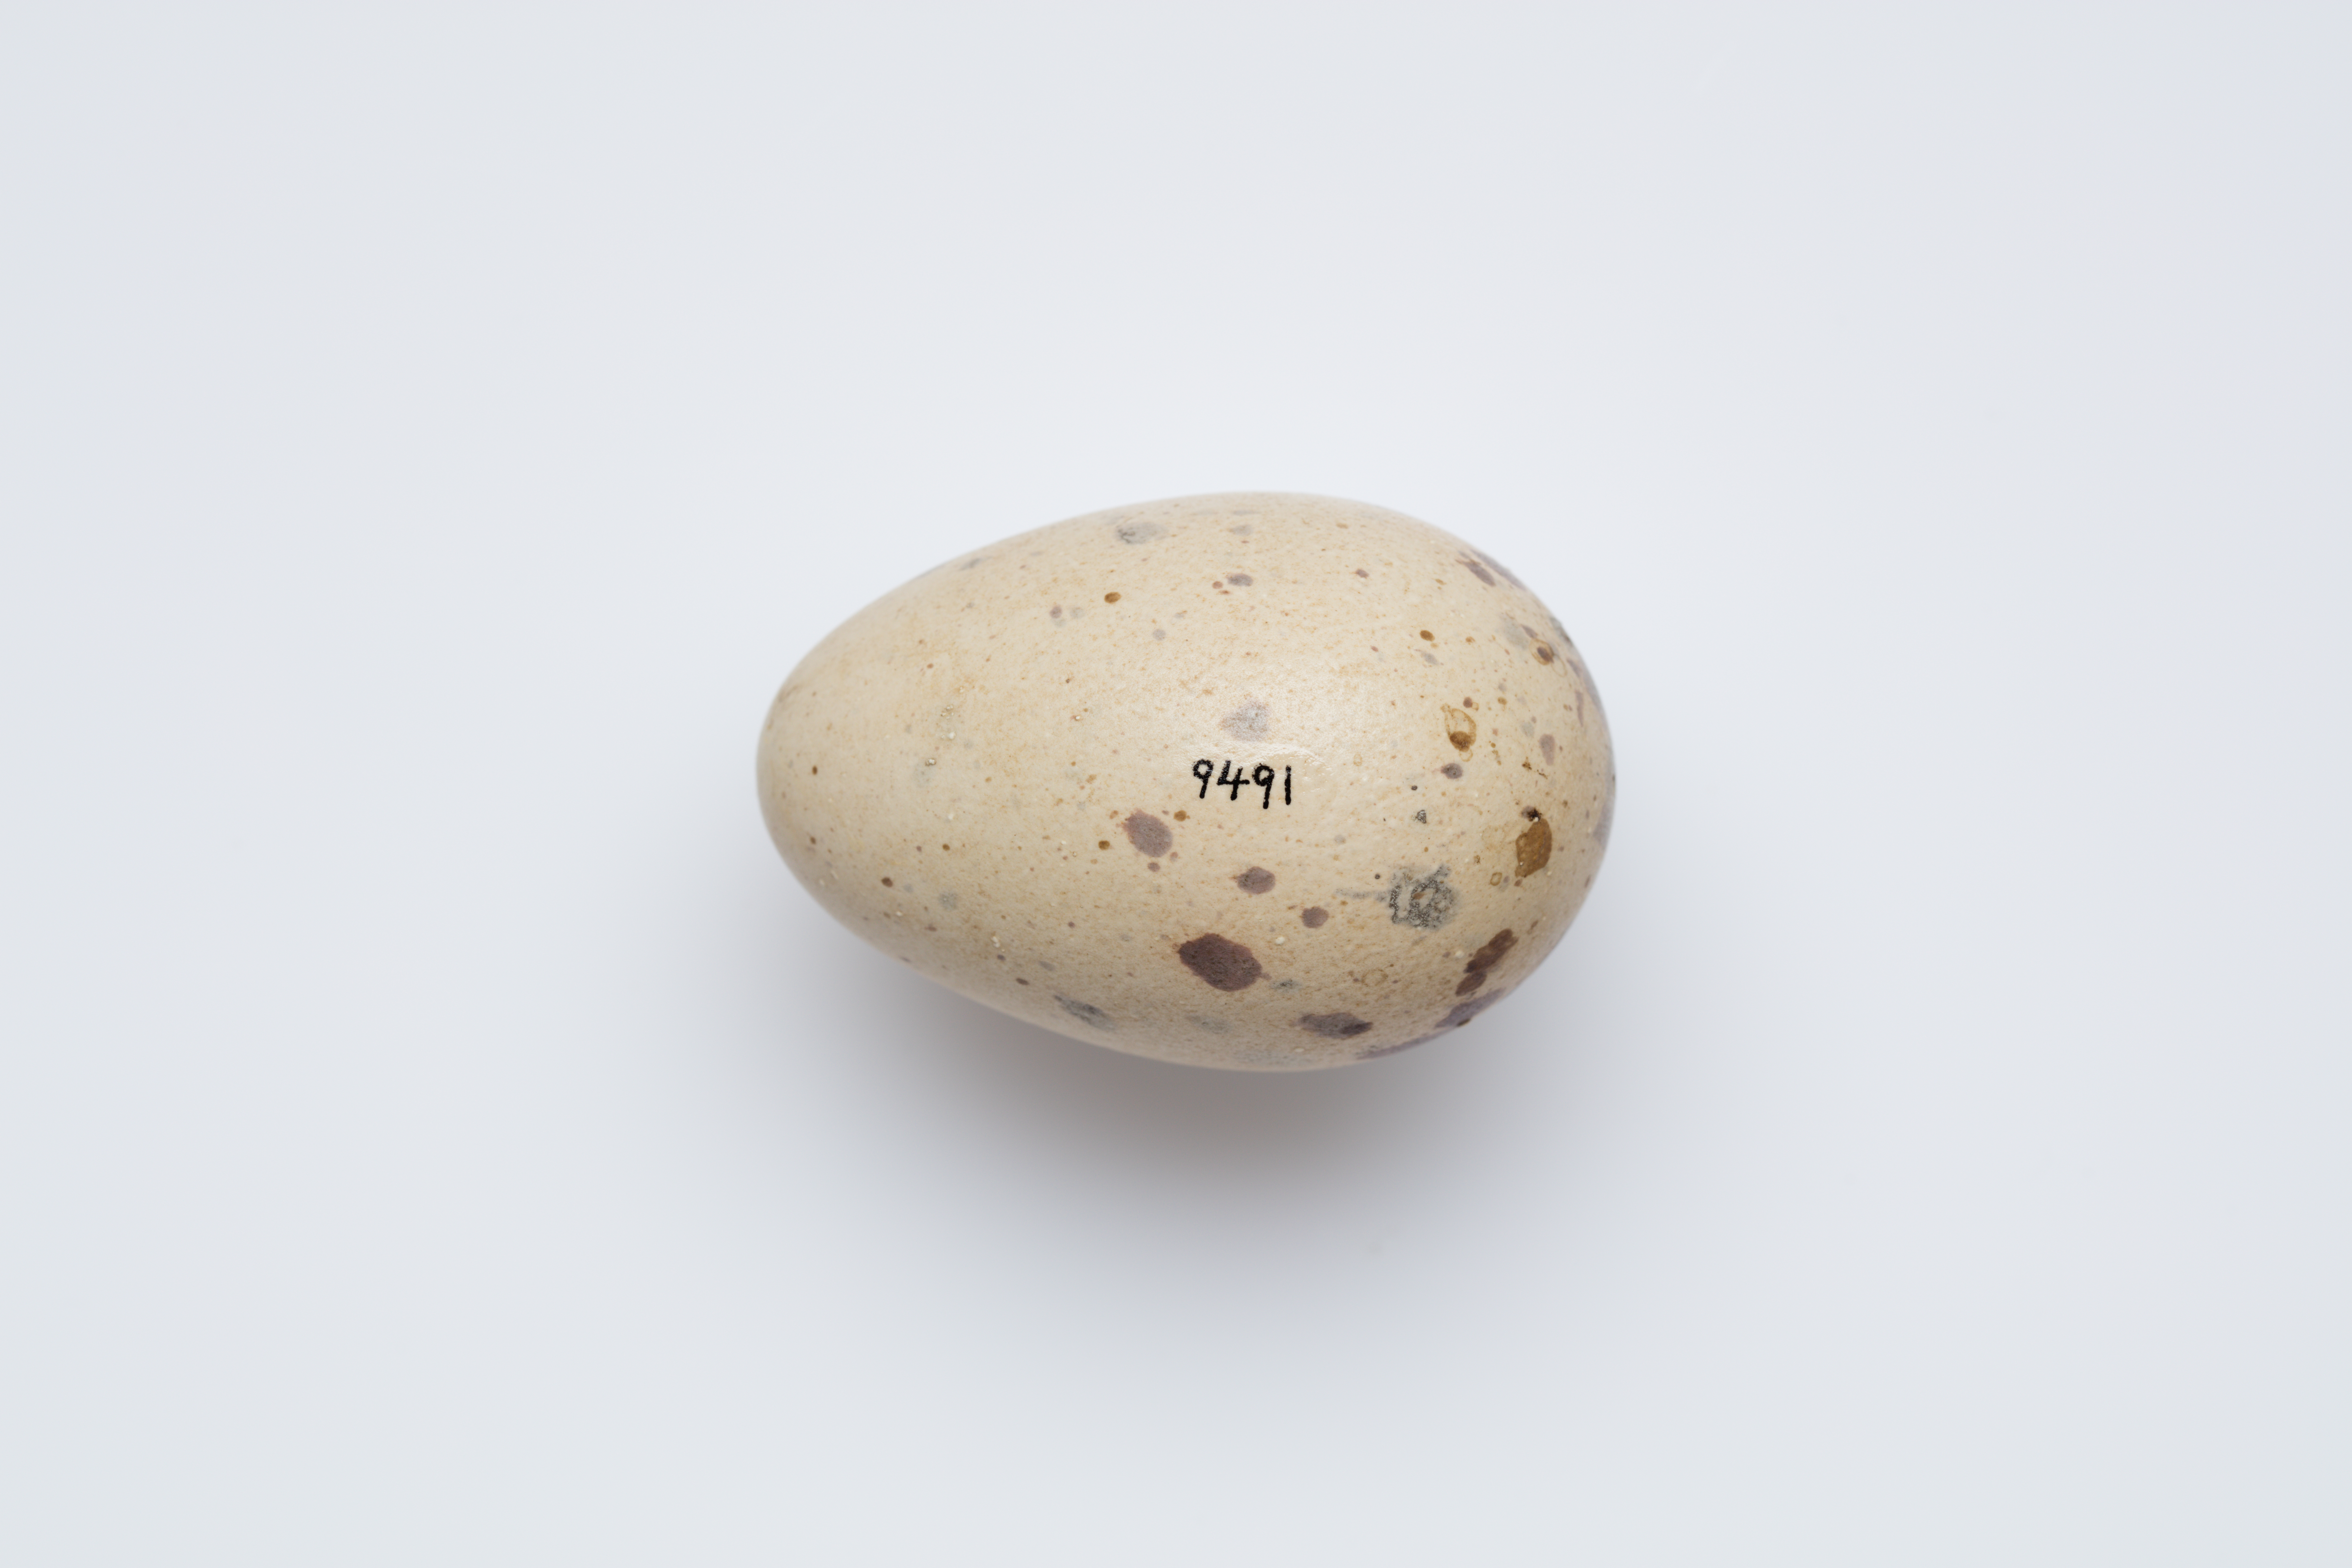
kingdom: Animalia
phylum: Chordata
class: Aves
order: Gruiformes
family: Rallidae
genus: Porphyrio
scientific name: Porphyrio melanotus
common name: Australasian swamphen
